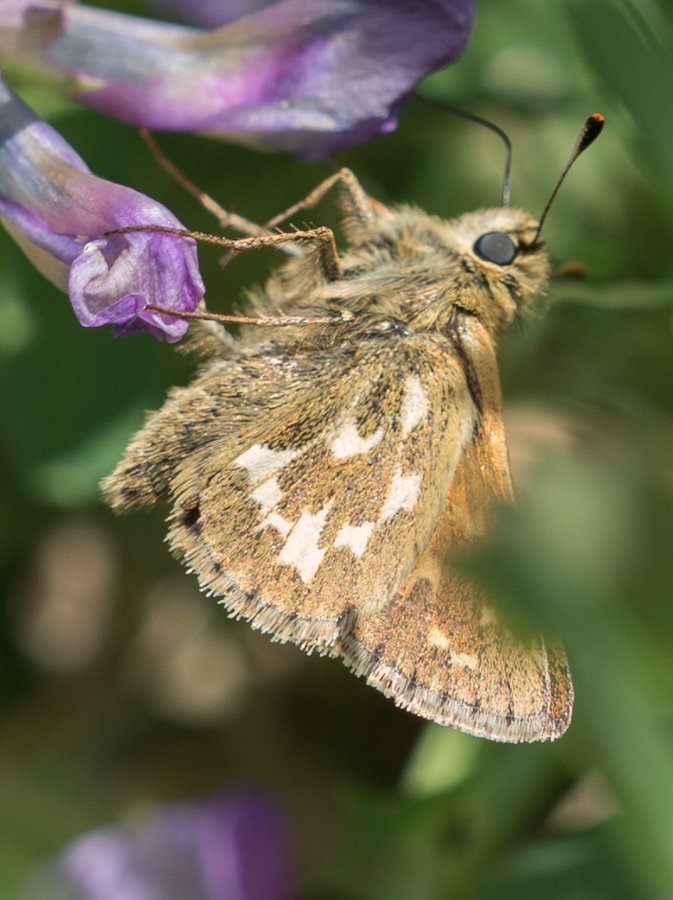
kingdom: Animalia
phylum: Arthropoda
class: Insecta
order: Lepidoptera
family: Hesperiidae
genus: Polites
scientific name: Polites sabuleti
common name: Draco Skipper
